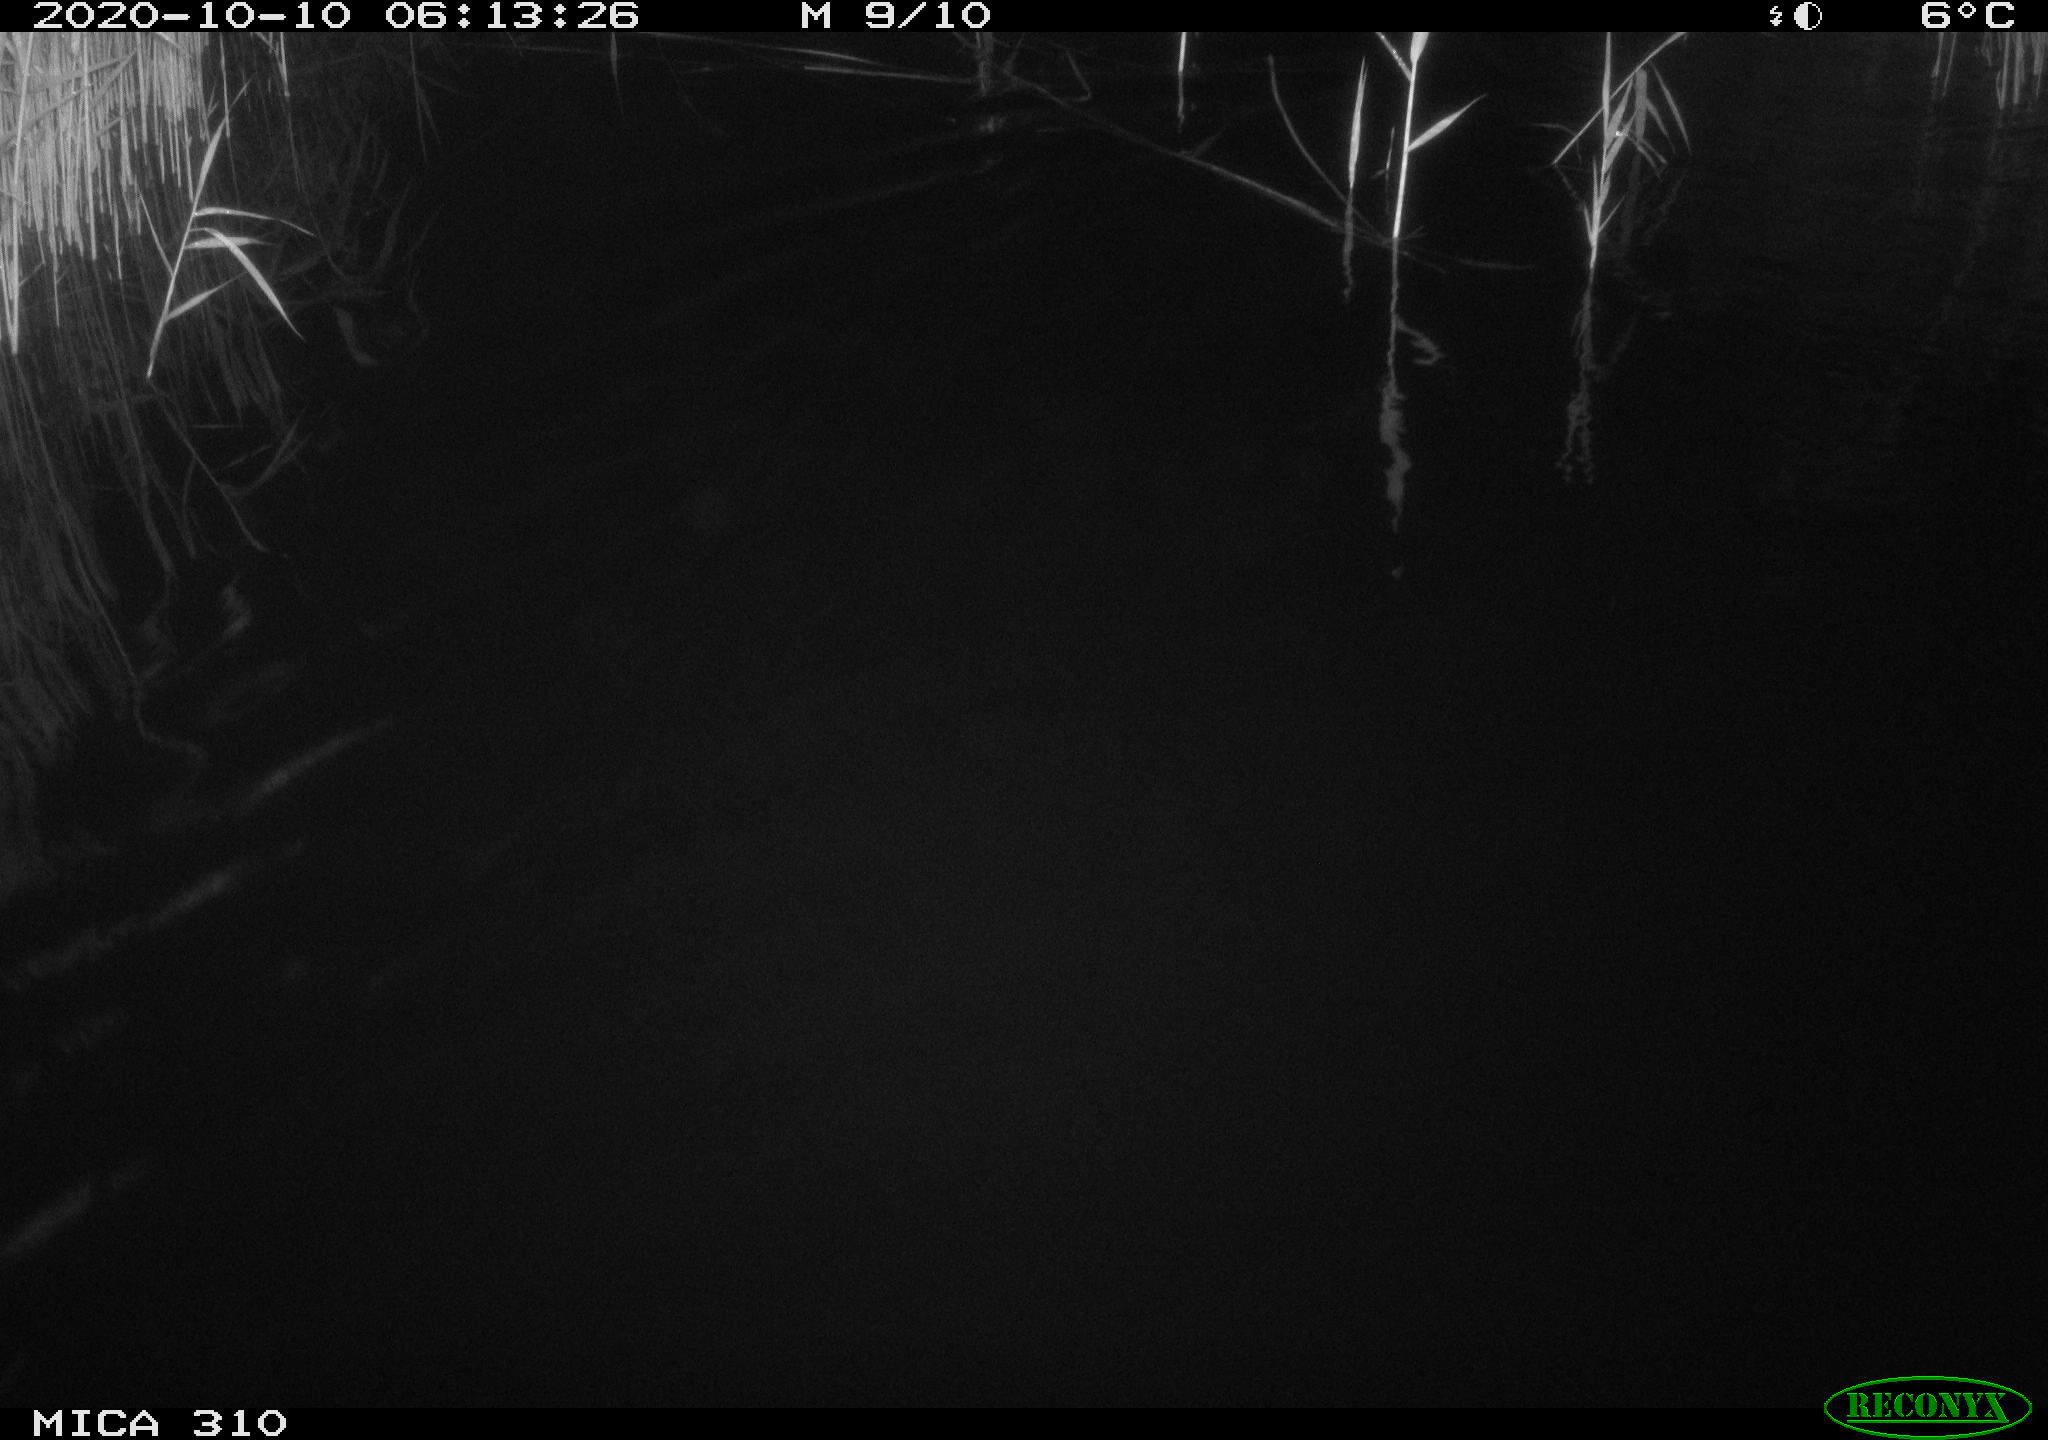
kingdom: Animalia
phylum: Chordata
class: Mammalia
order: Rodentia
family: Cricetidae
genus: Ondatra
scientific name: Ondatra zibethicus
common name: Muskrat
